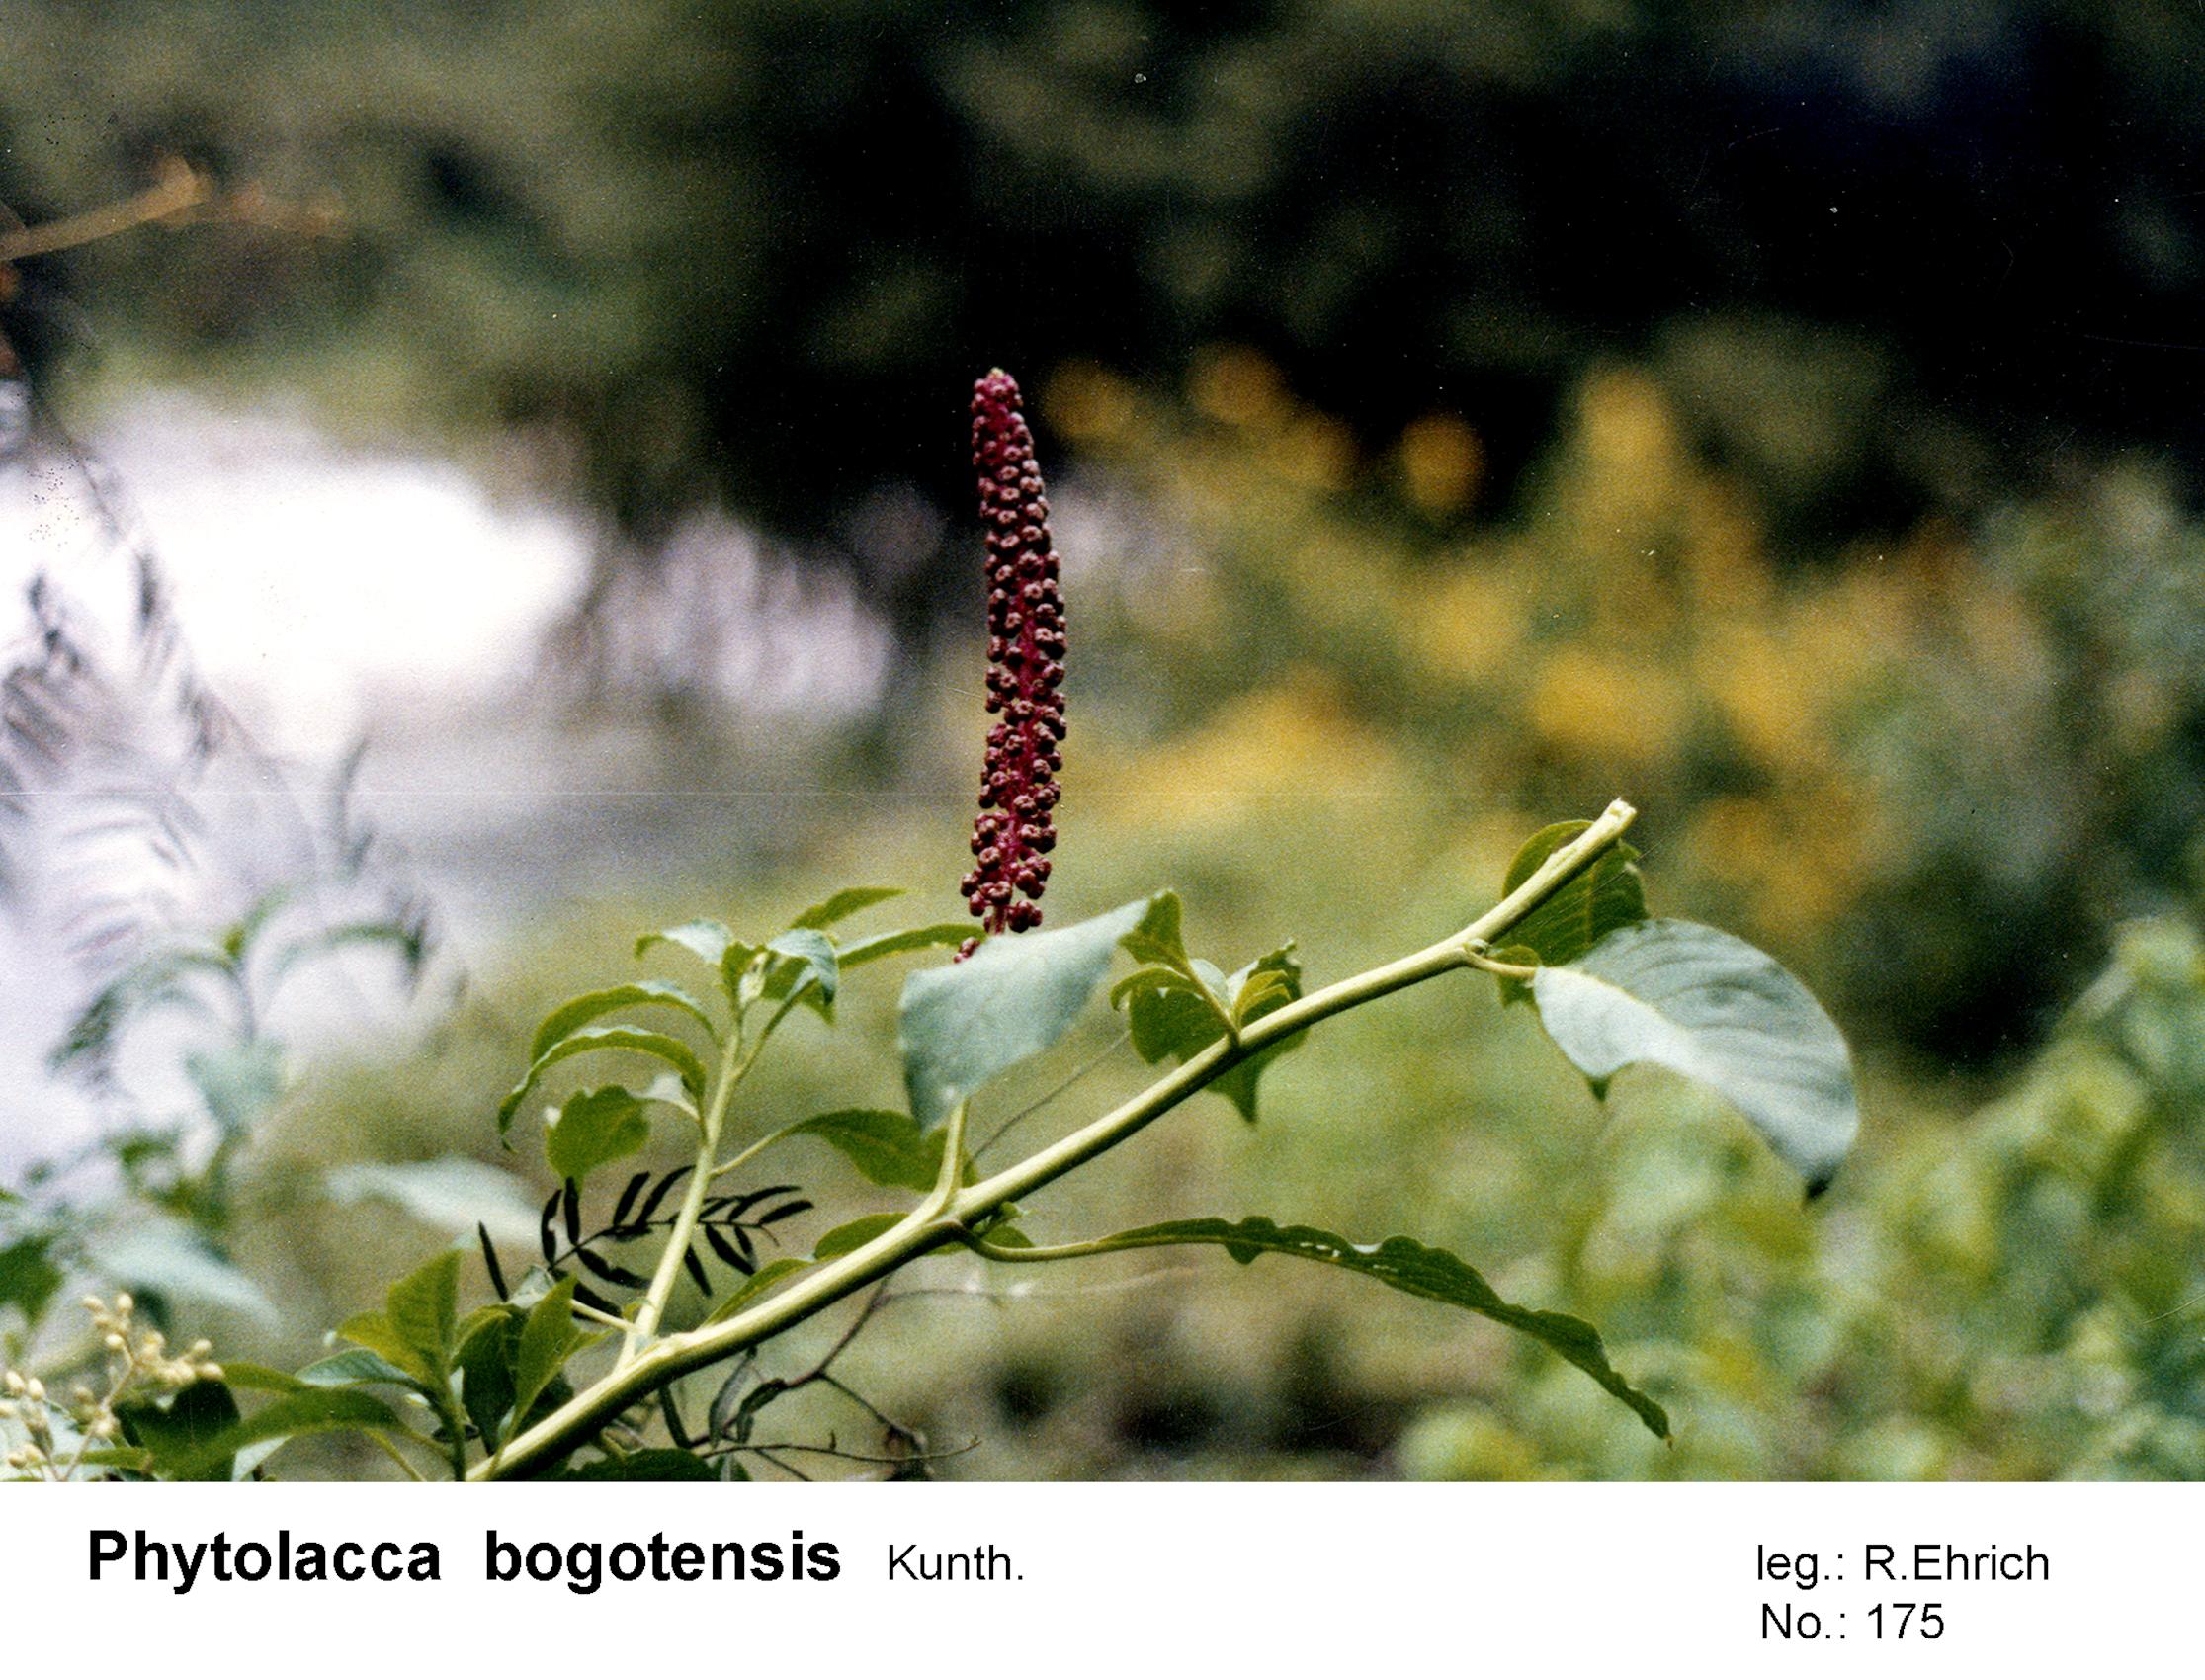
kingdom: Plantae
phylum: Tracheophyta
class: Magnoliopsida
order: Caryophyllales
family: Phytolaccaceae
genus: Phytolacca
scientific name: Phytolacca bogotensis
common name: Southern pokeweed
